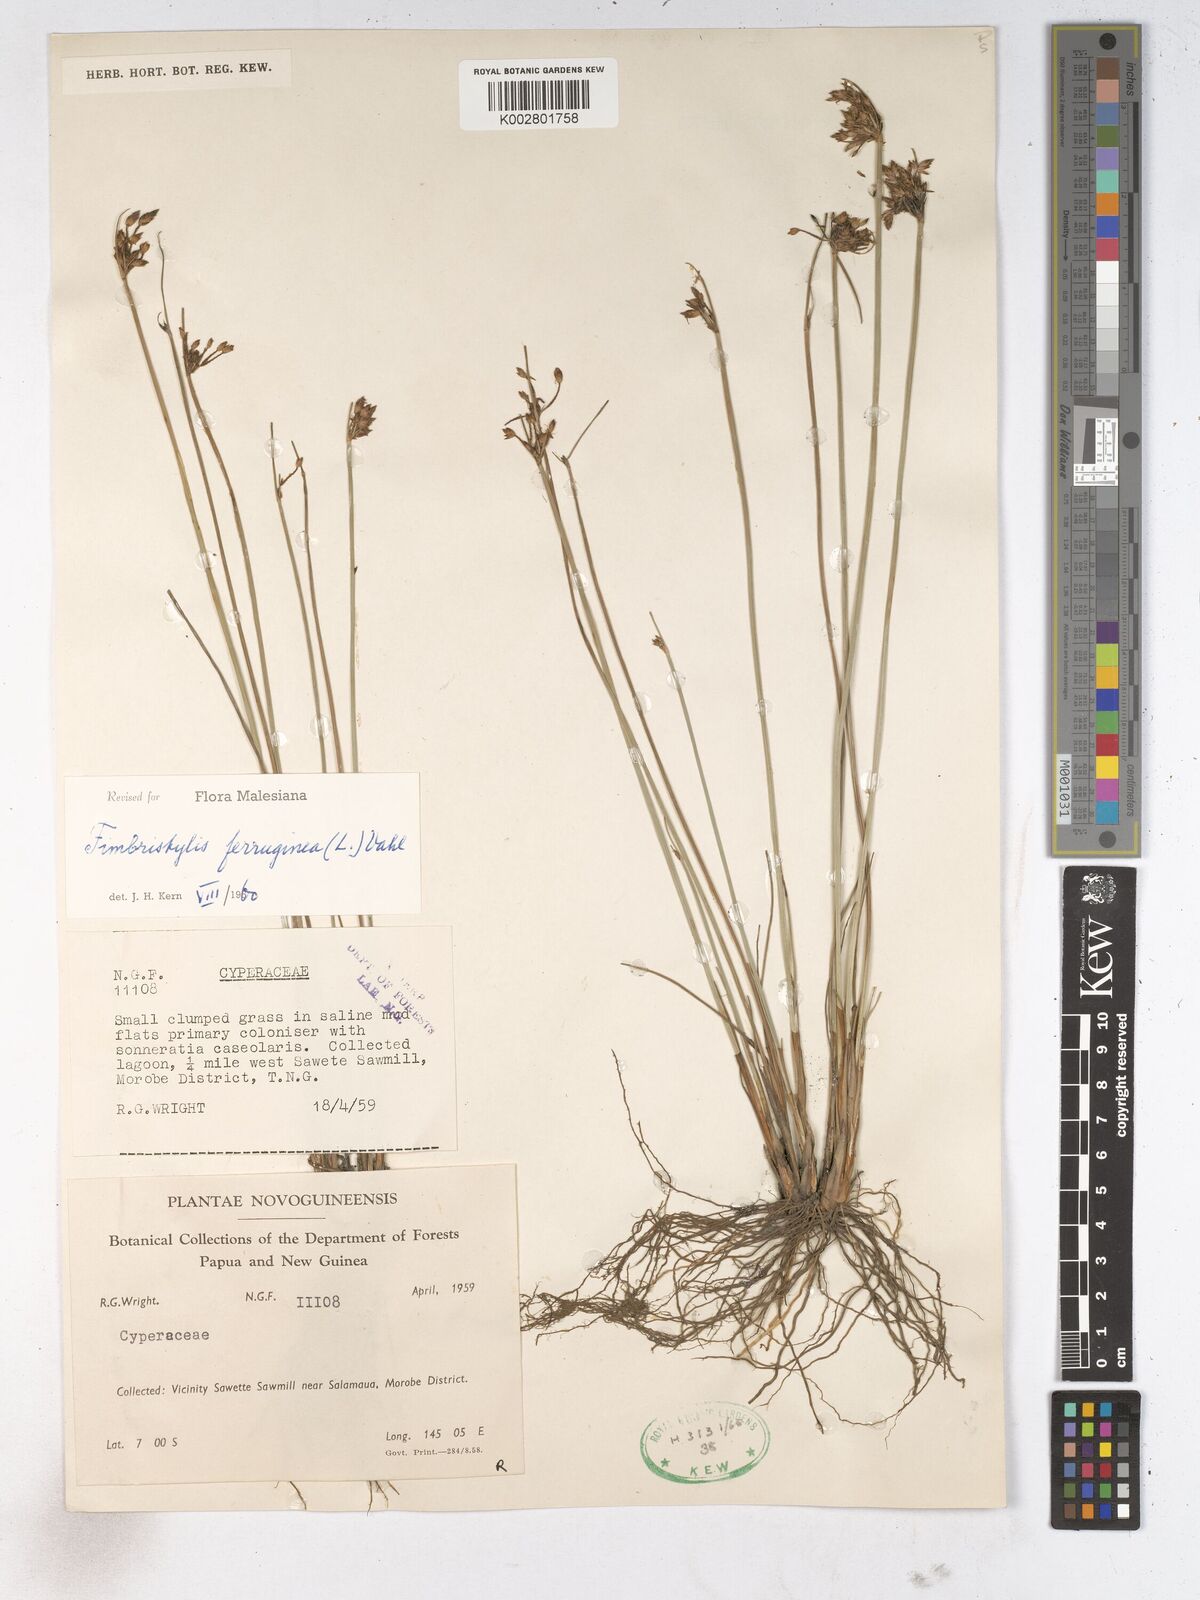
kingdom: Plantae
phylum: Tracheophyta
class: Liliopsida
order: Poales
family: Cyperaceae
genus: Fimbristylis
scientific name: Fimbristylis ferruginea
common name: West indian fimbry
